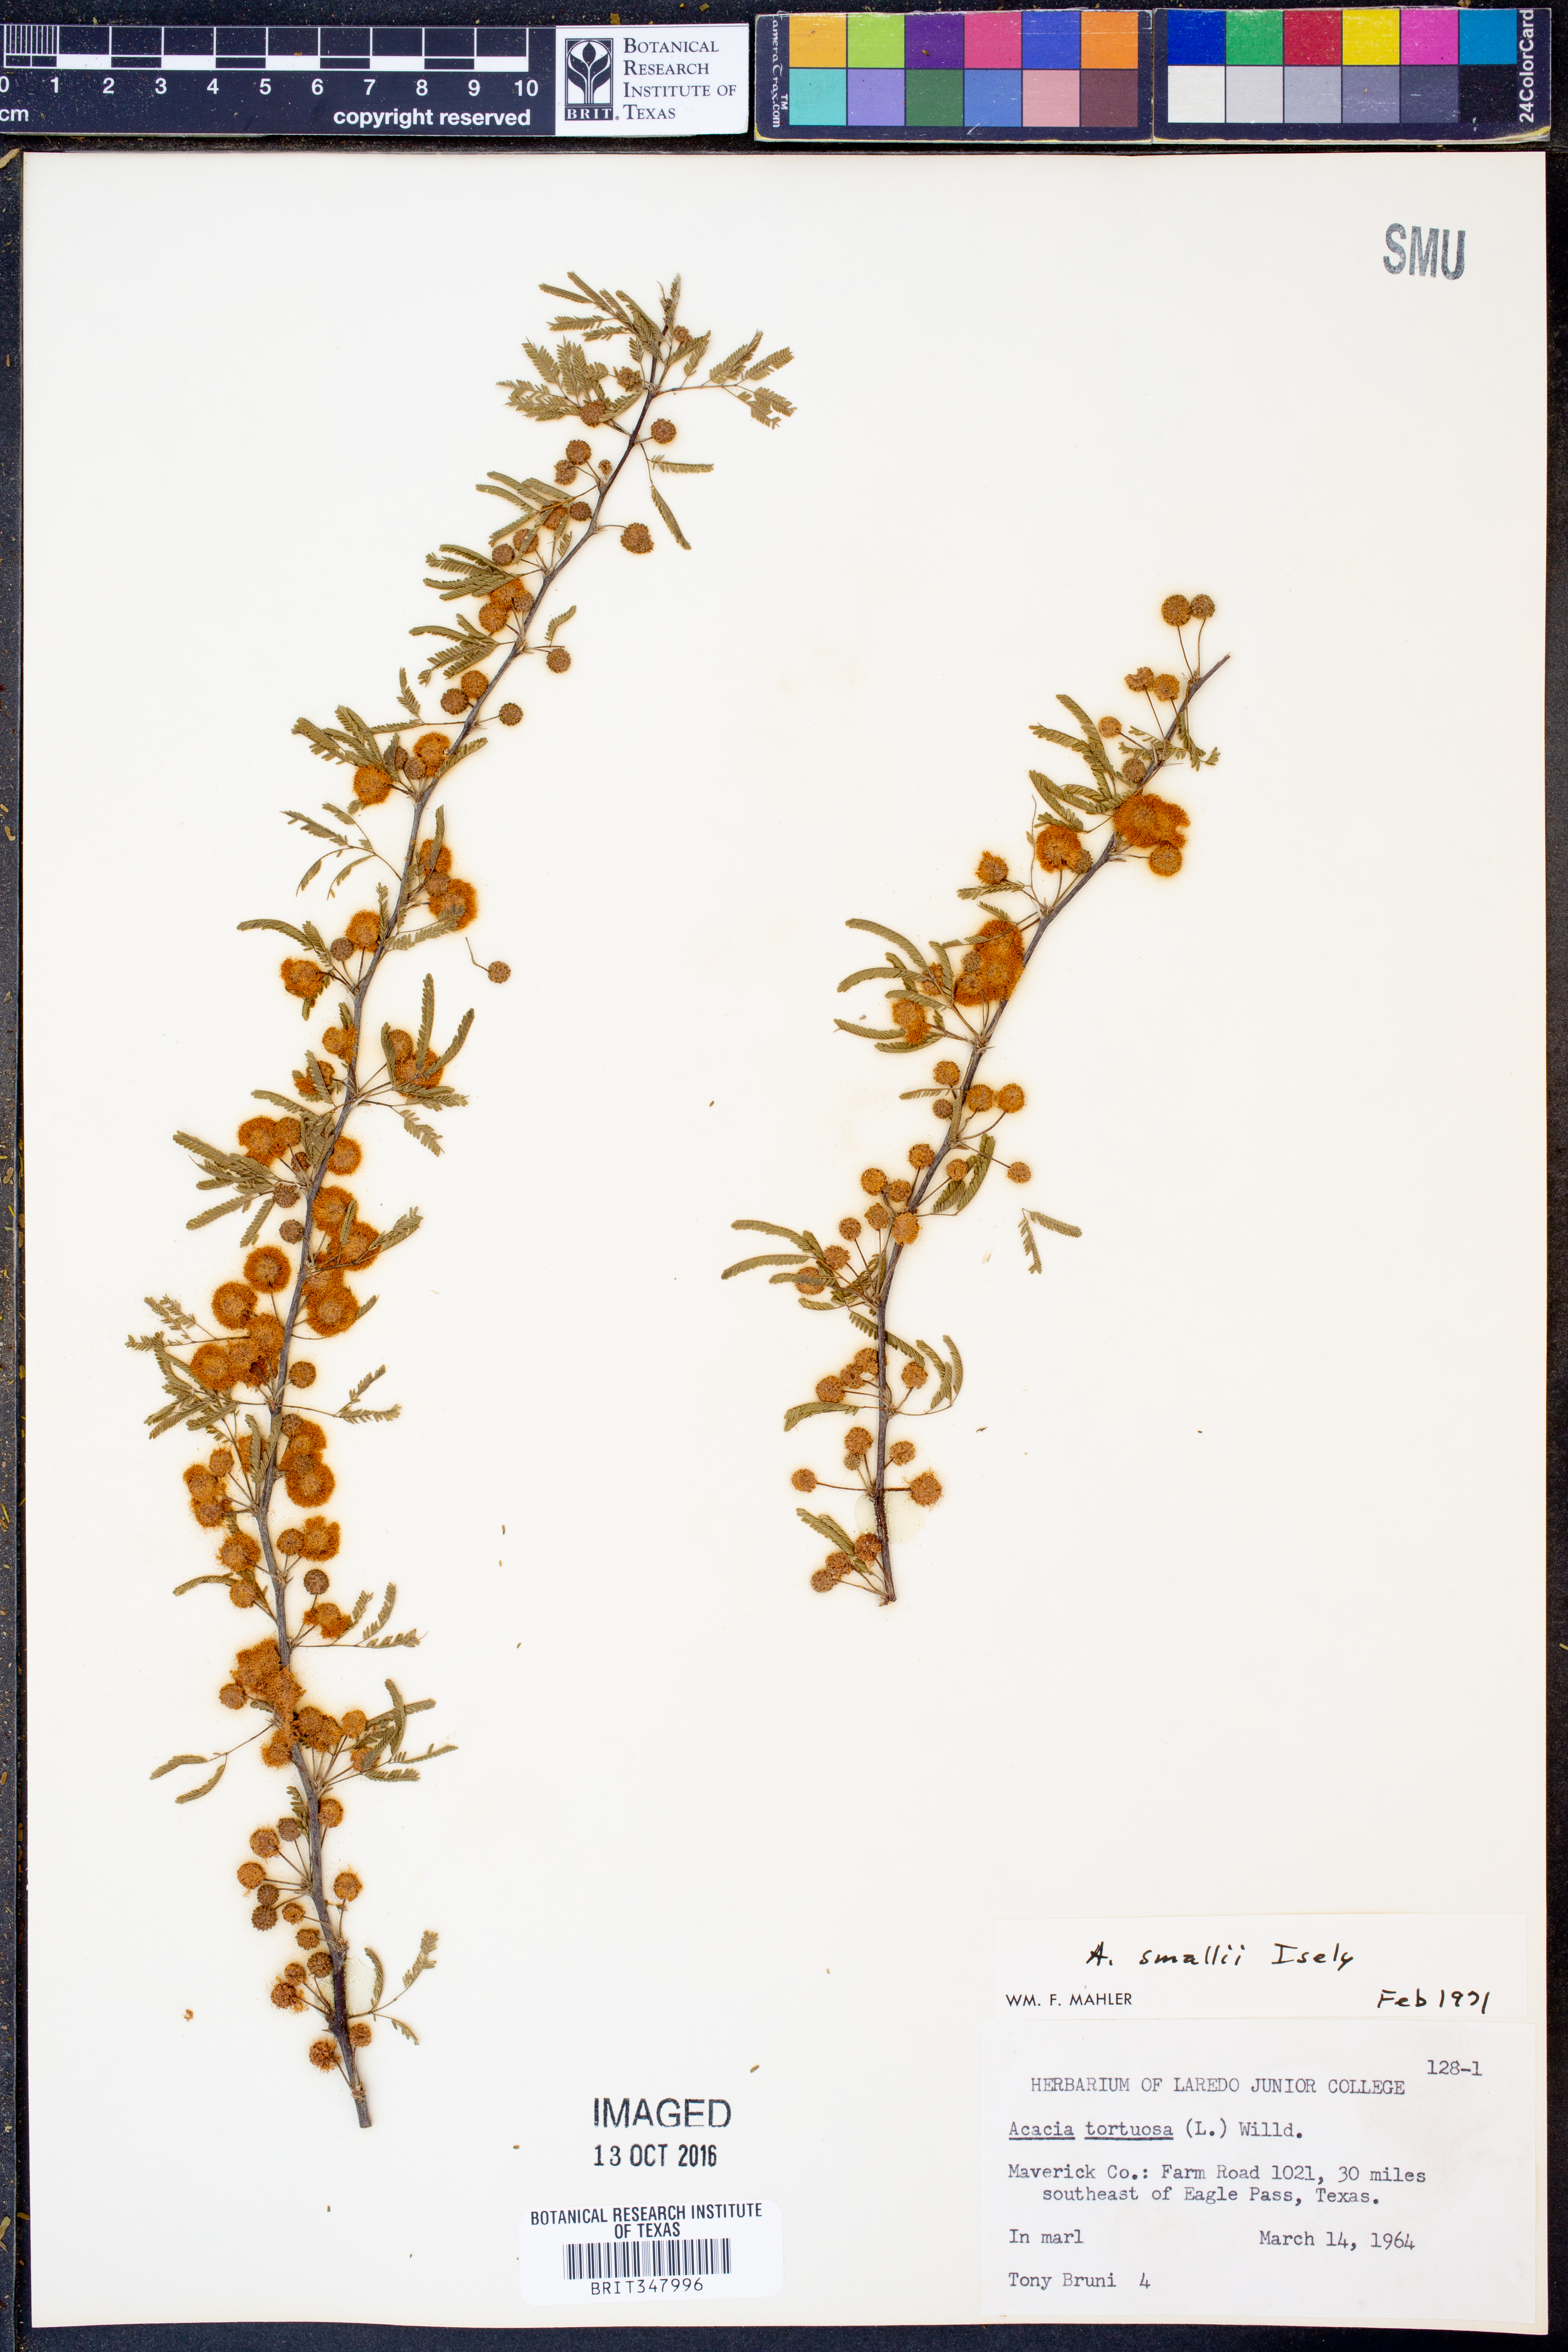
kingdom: Plantae
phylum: Tracheophyta
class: Magnoliopsida
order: Fabales
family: Fabaceae
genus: Vachellia
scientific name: Vachellia farnesiana
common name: Sweet acacia
